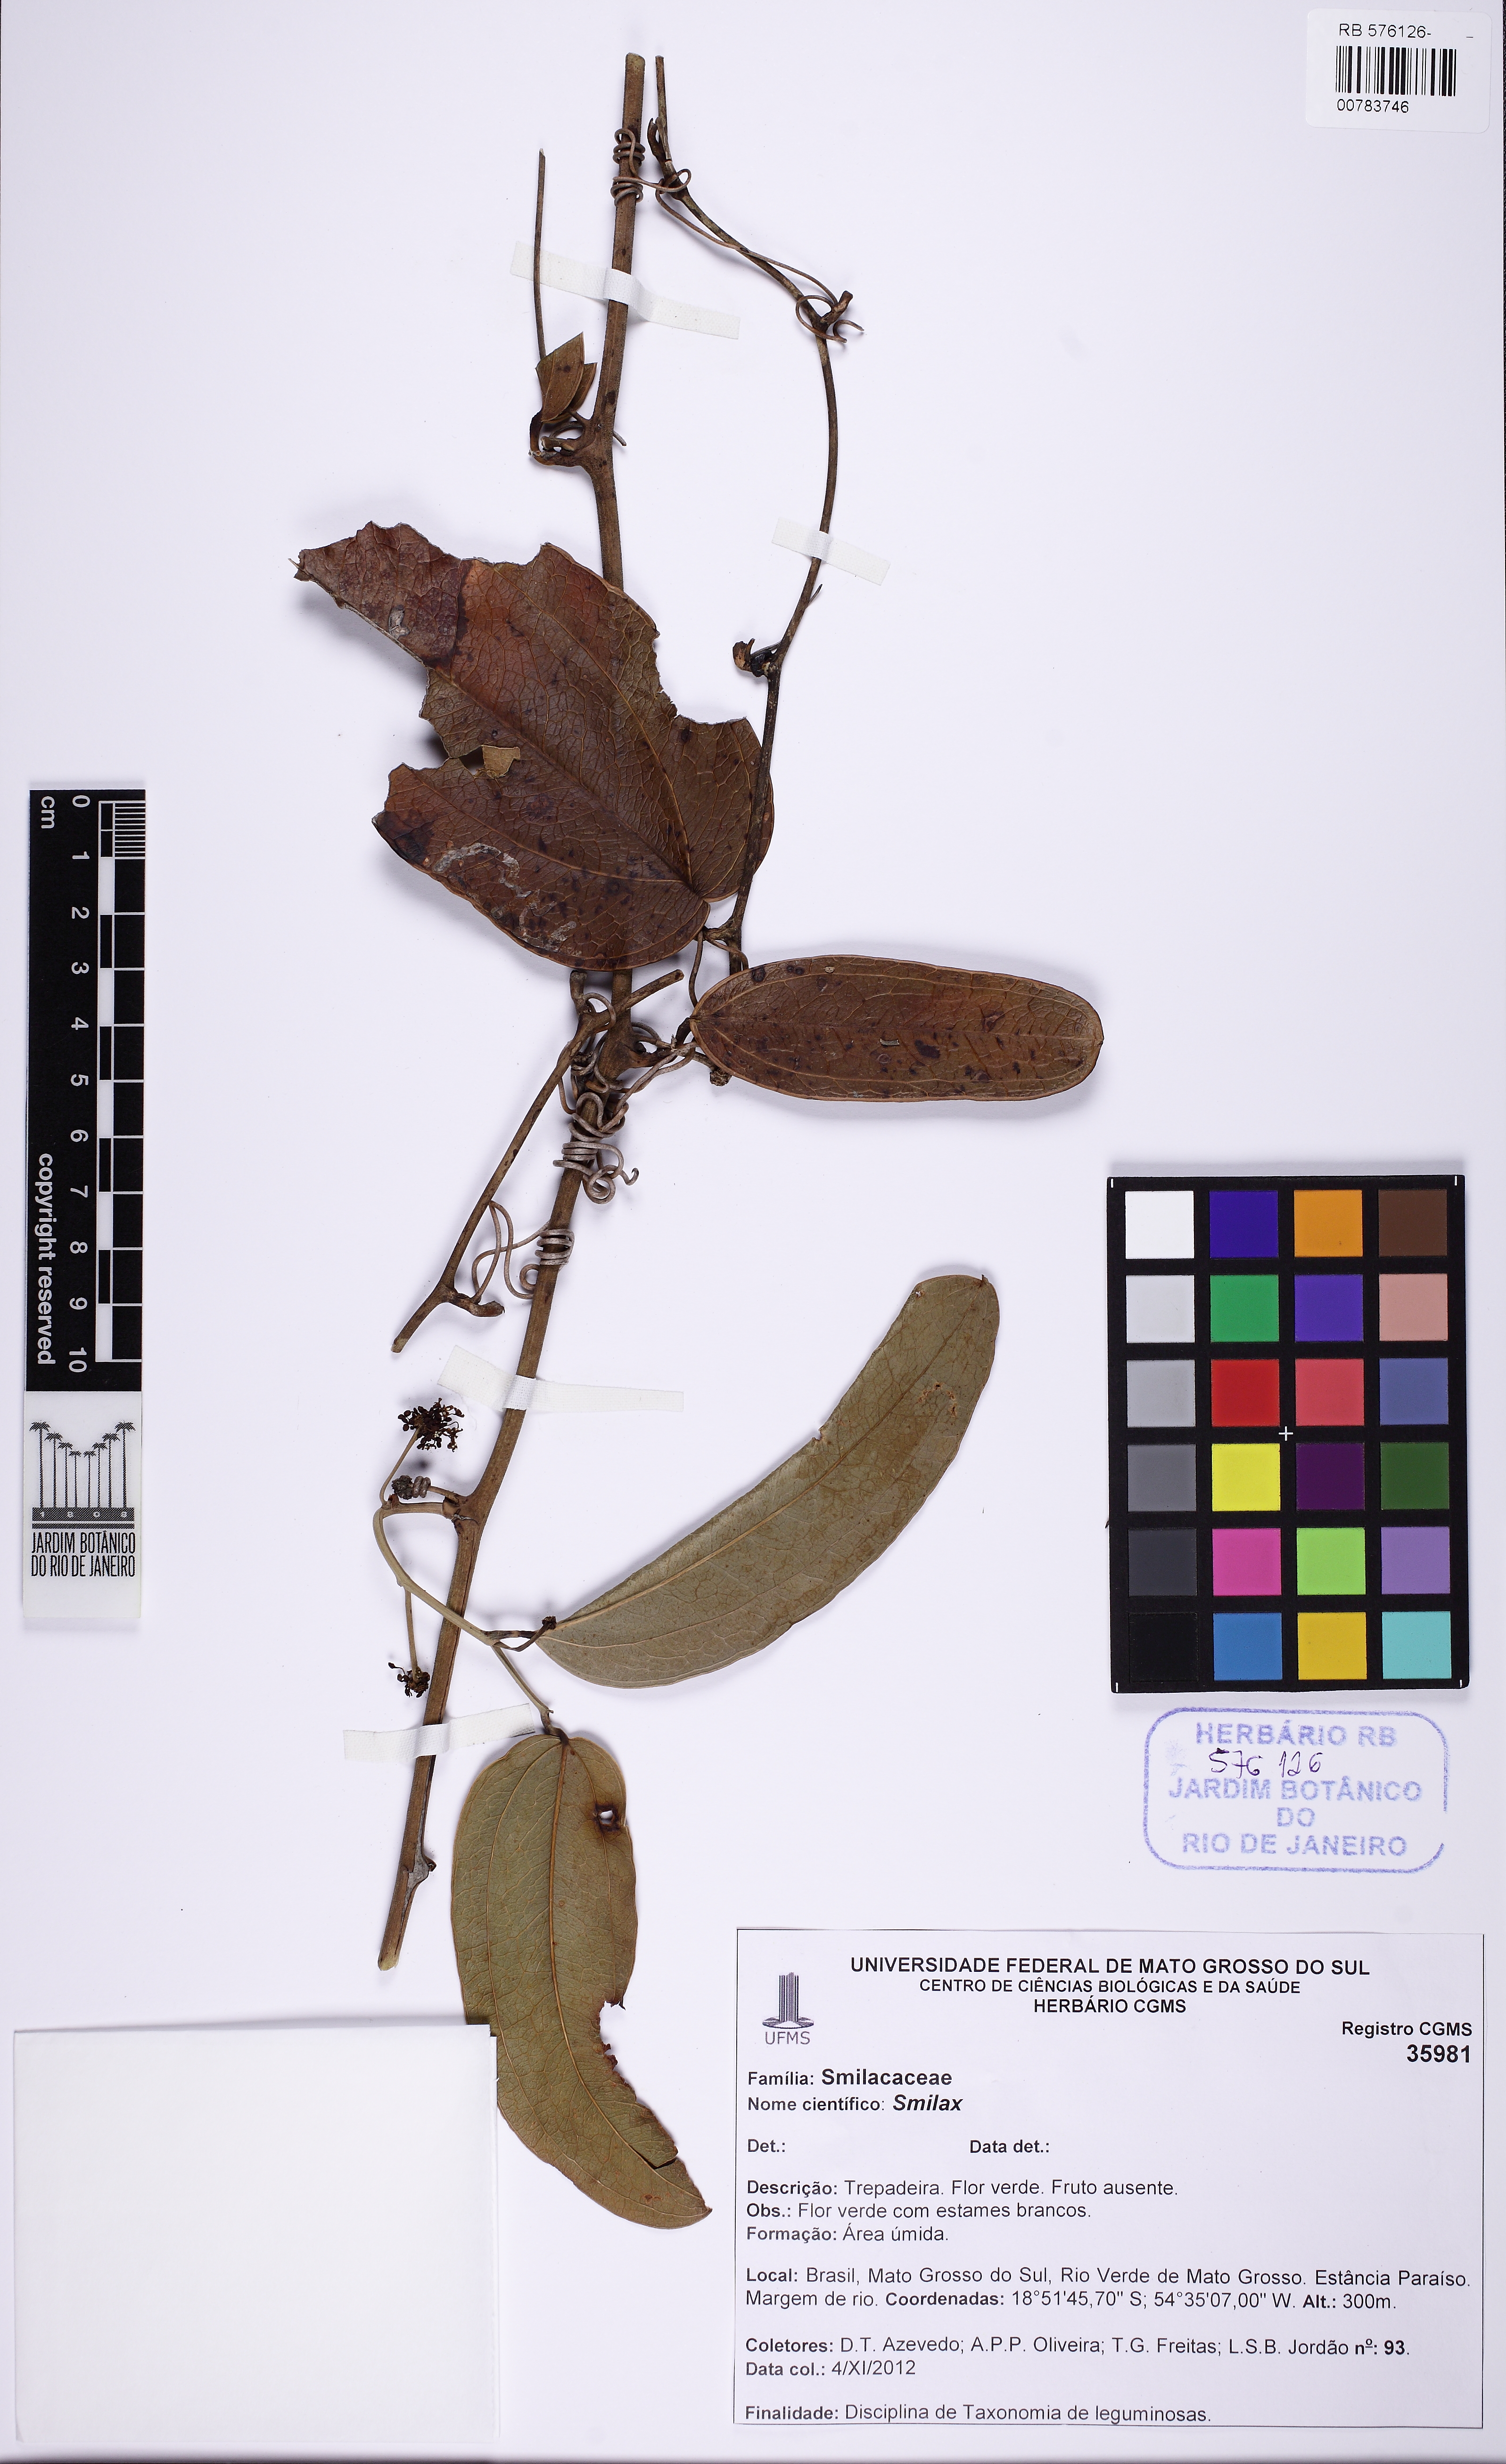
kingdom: Plantae
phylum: Tracheophyta
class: Liliopsida
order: Liliales
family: Smilacaceae
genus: Smilax
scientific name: Smilax
